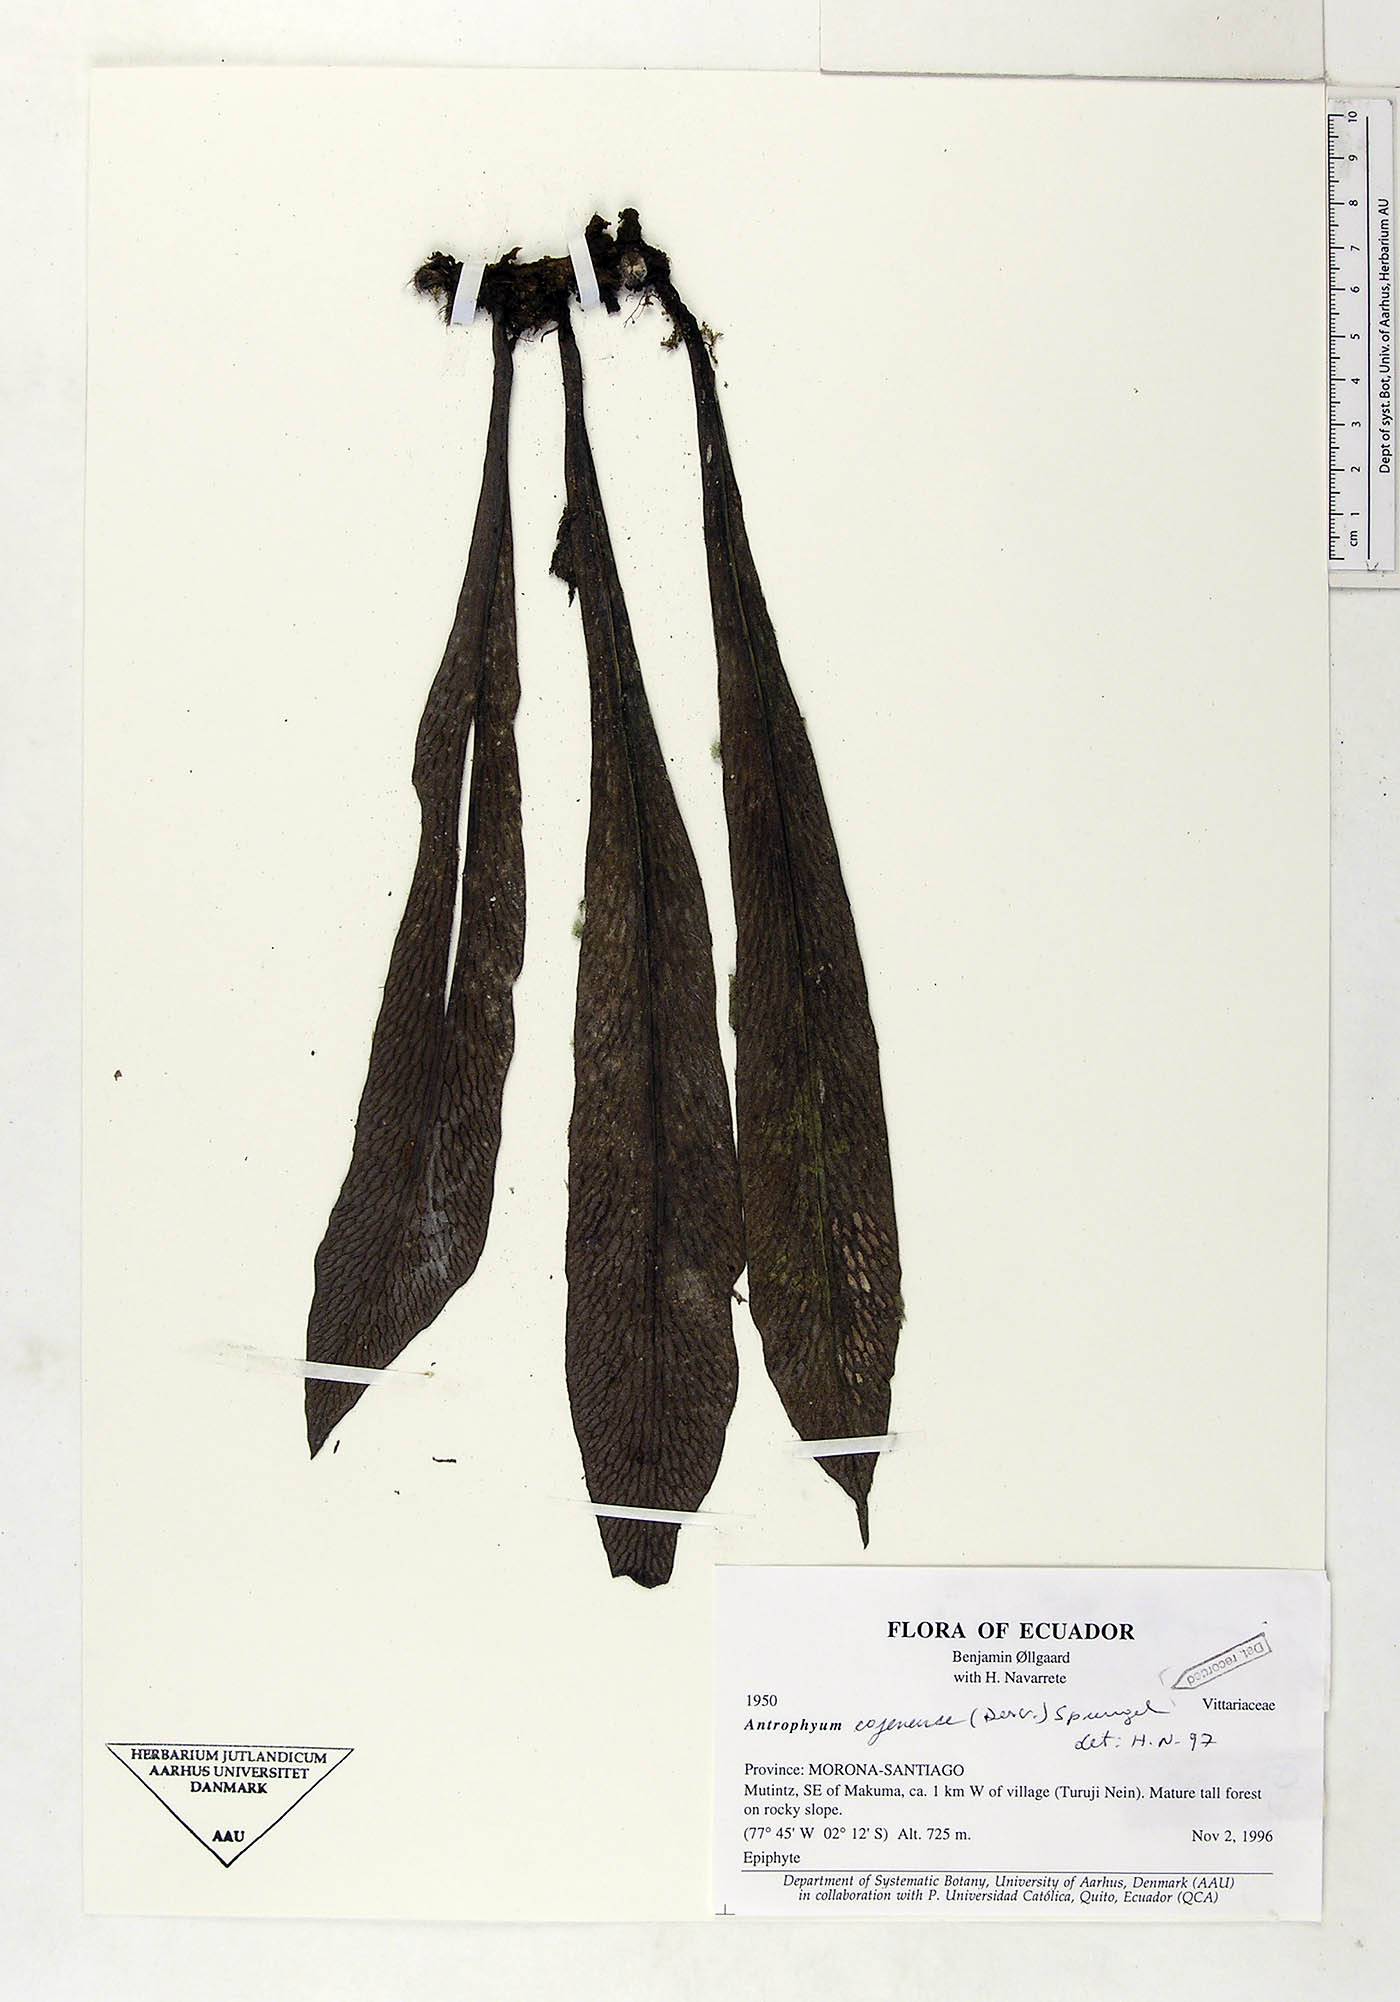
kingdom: Plantae
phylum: Tracheophyta
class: Polypodiopsida
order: Polypodiales
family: Pteridaceae
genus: Polytaenium
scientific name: Polytaenium cajenense
